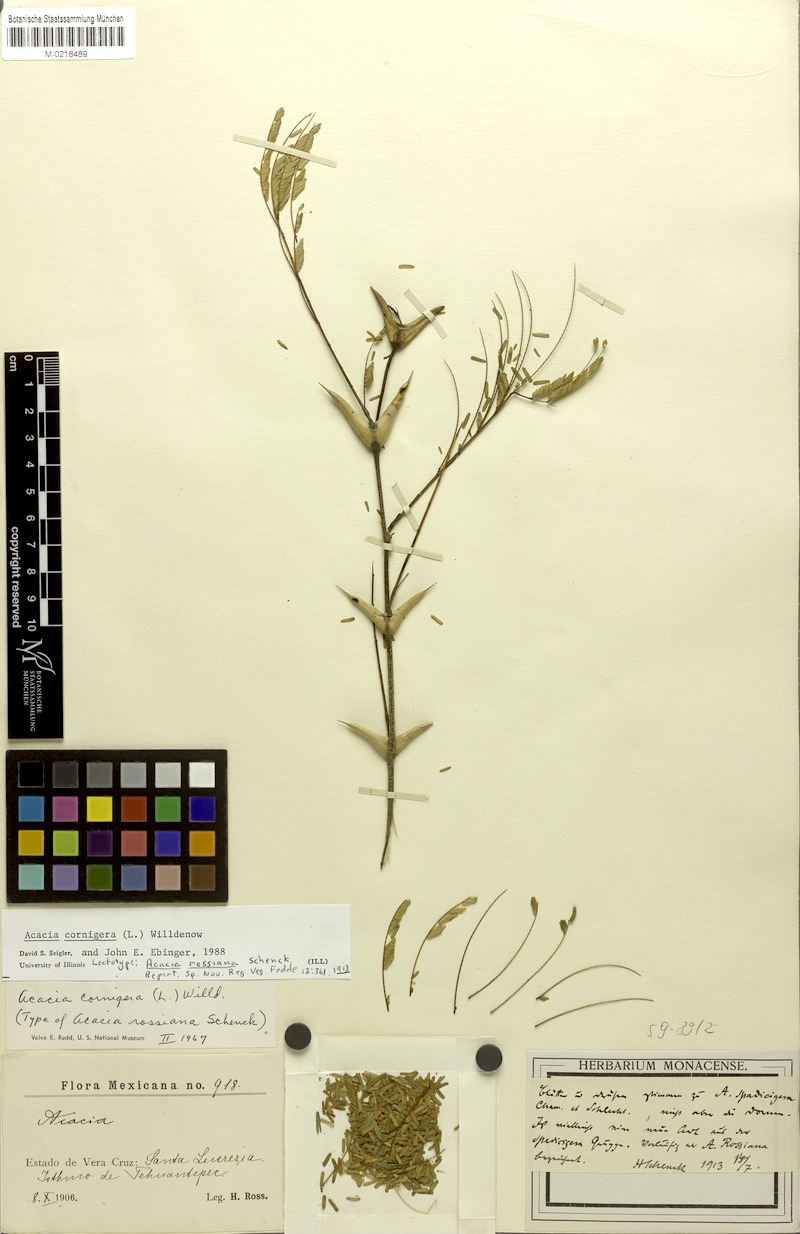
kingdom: Plantae
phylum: Tracheophyta
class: Magnoliopsida
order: Fabales
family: Fabaceae
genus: Vachellia
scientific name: Vachellia cornigera
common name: Bullhorn wattle
